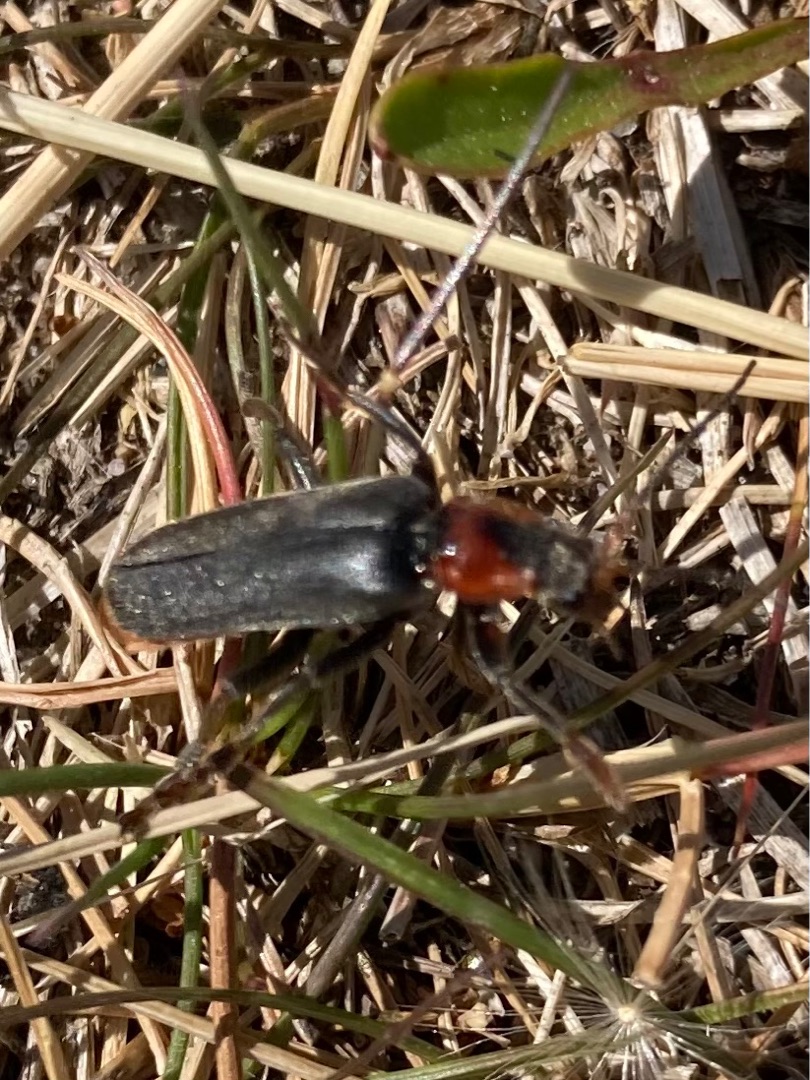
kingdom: Animalia
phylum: Arthropoda
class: Insecta
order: Coleoptera
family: Cantharidae
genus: Cantharis
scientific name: Cantharis fusca
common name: Stor blødvinge
